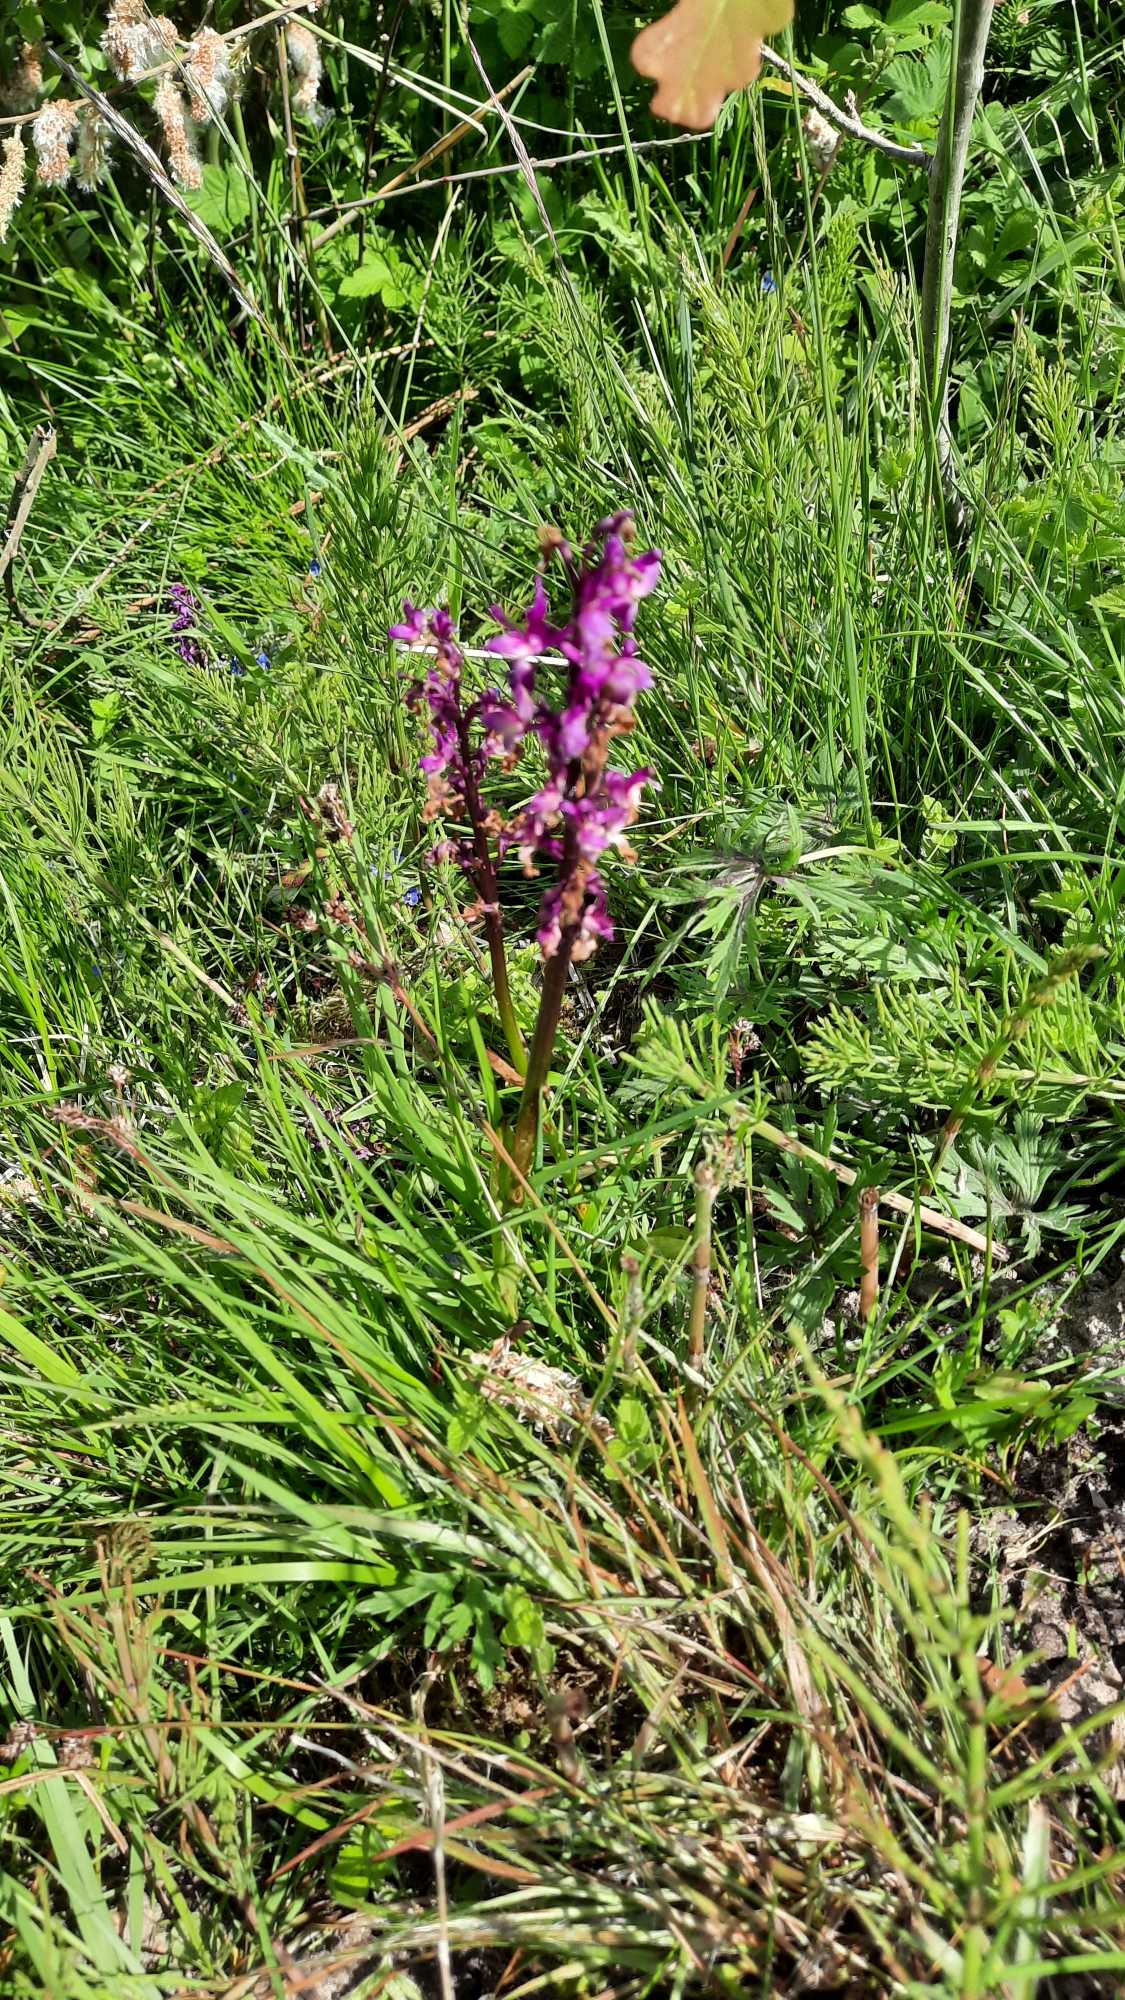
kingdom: Plantae
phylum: Tracheophyta
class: Liliopsida
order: Asparagales
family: Orchidaceae
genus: Orchis
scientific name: Orchis mascula
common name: Tyndakset gøgeurt
